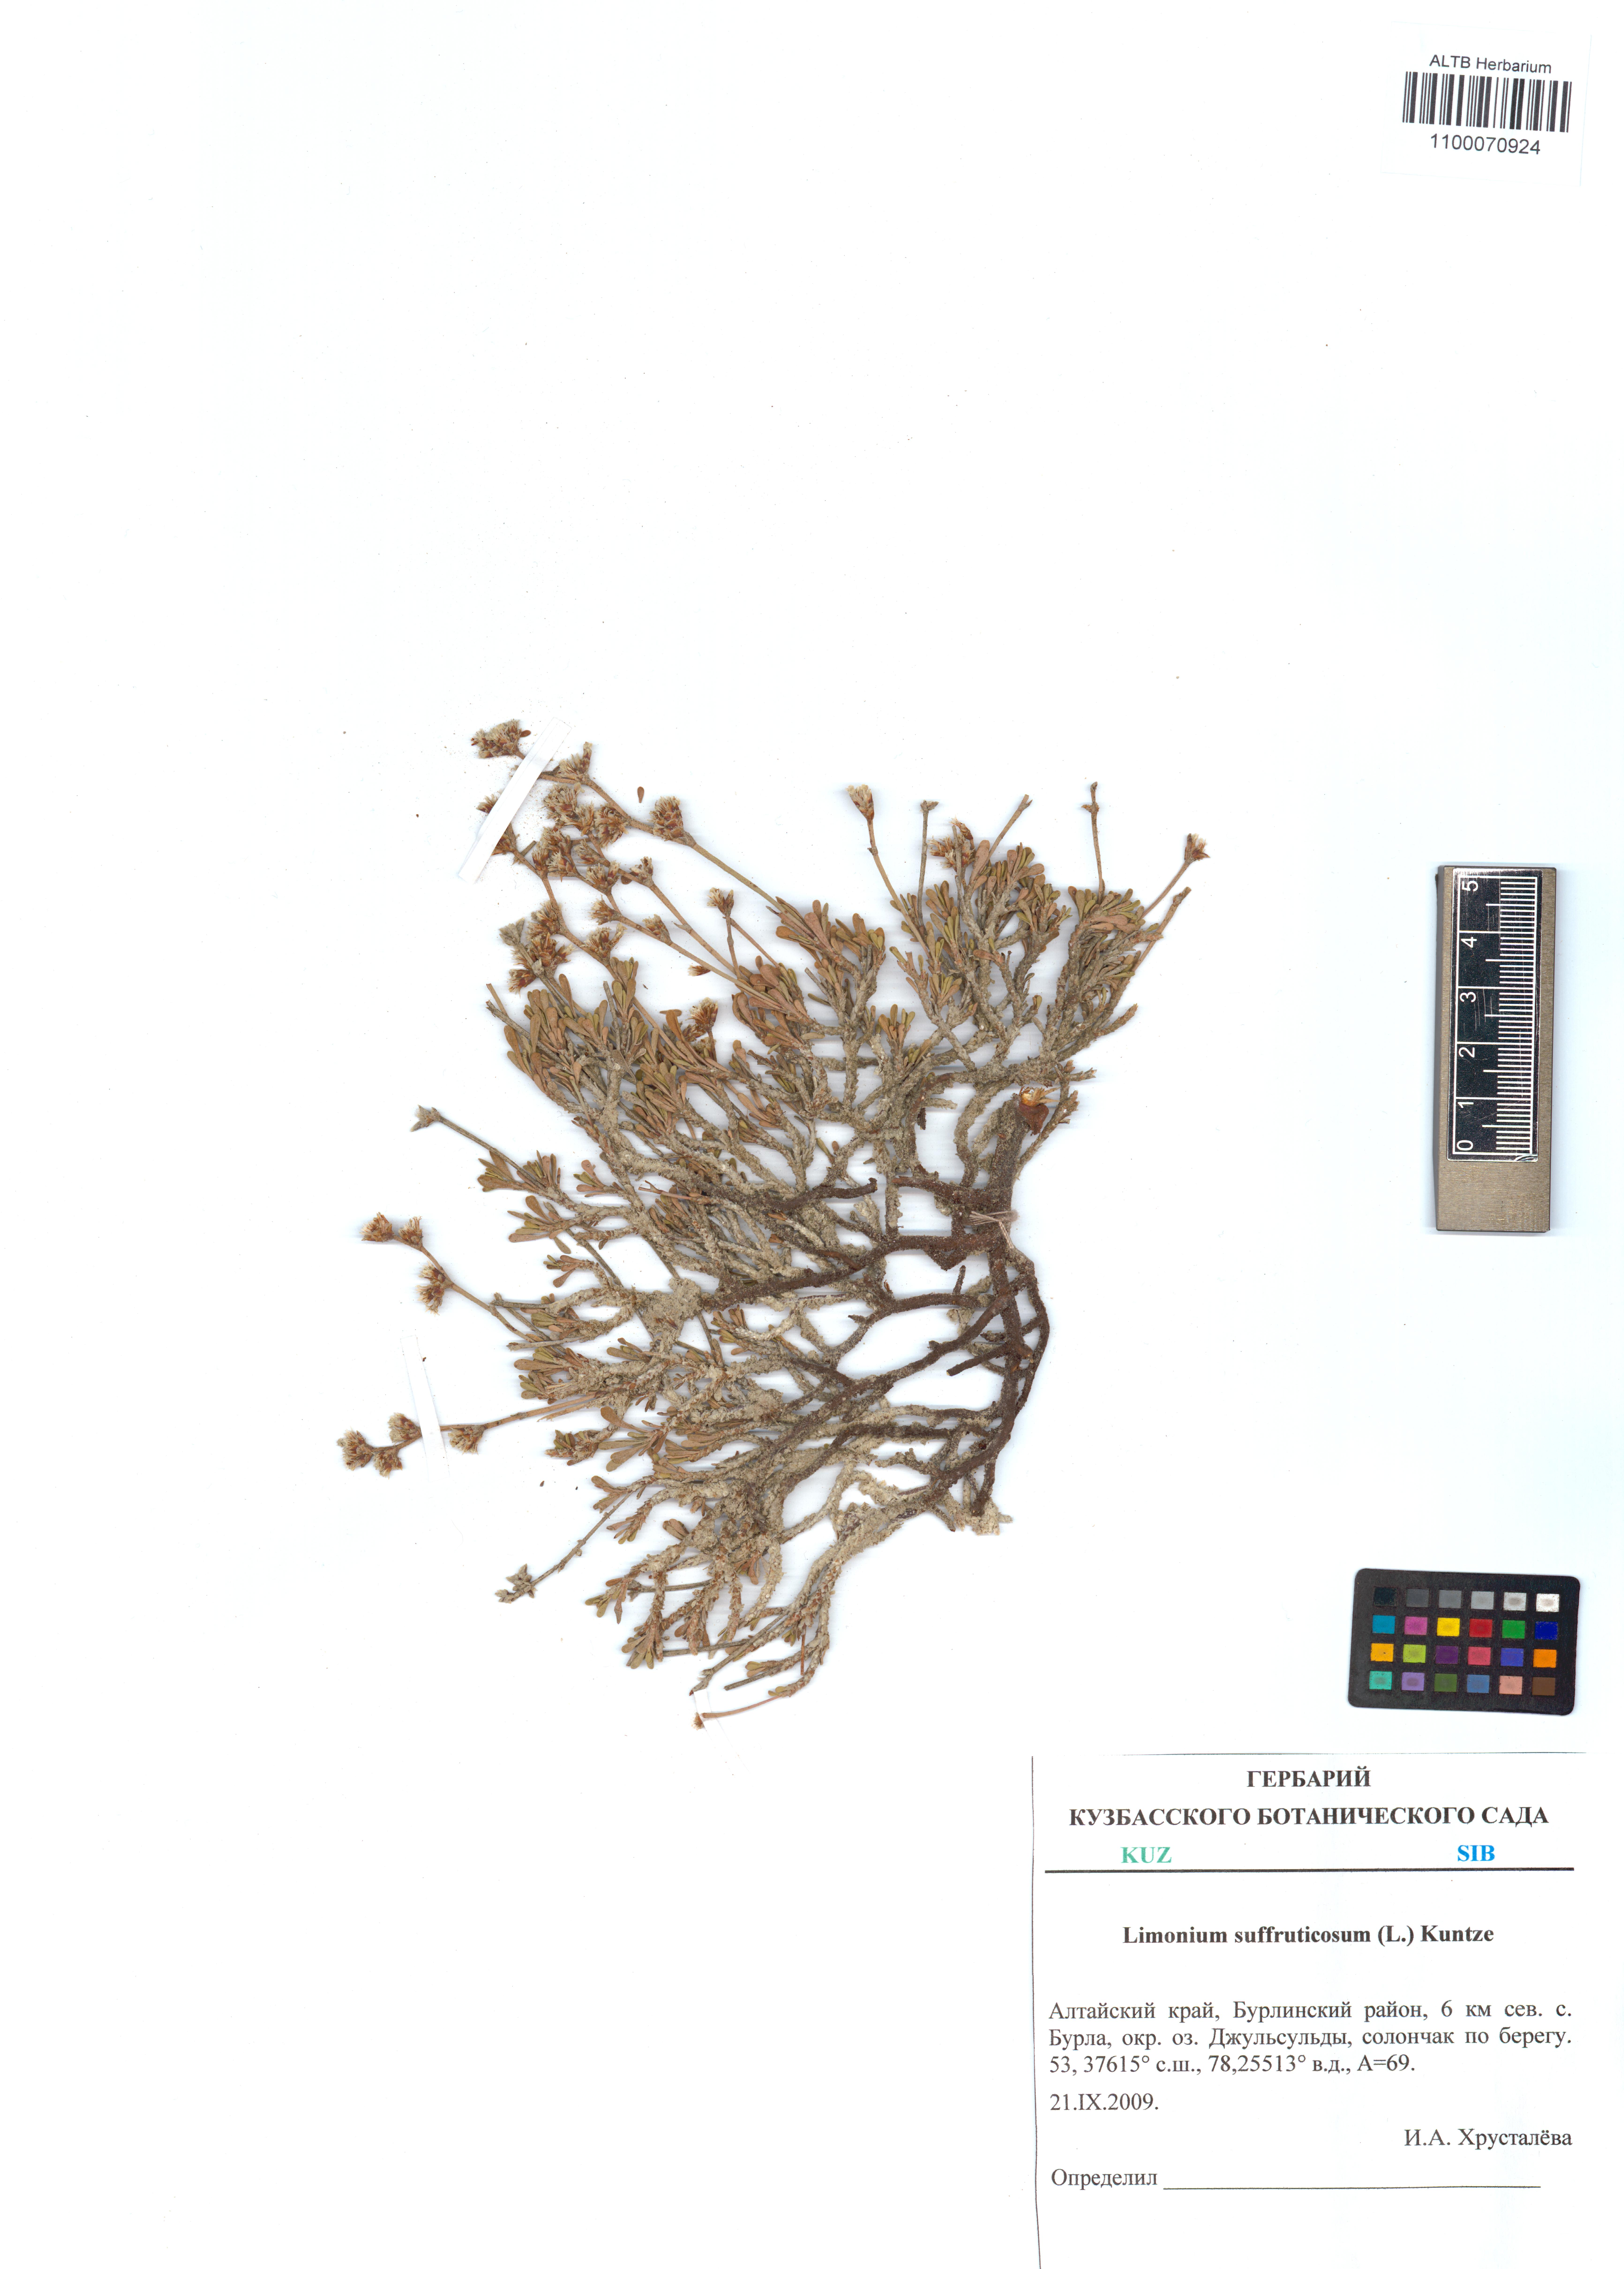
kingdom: Plantae
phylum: Tracheophyta
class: Magnoliopsida
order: Caryophyllales
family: Plumbaginaceae
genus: Limonium
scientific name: Limonium suffruticosum
